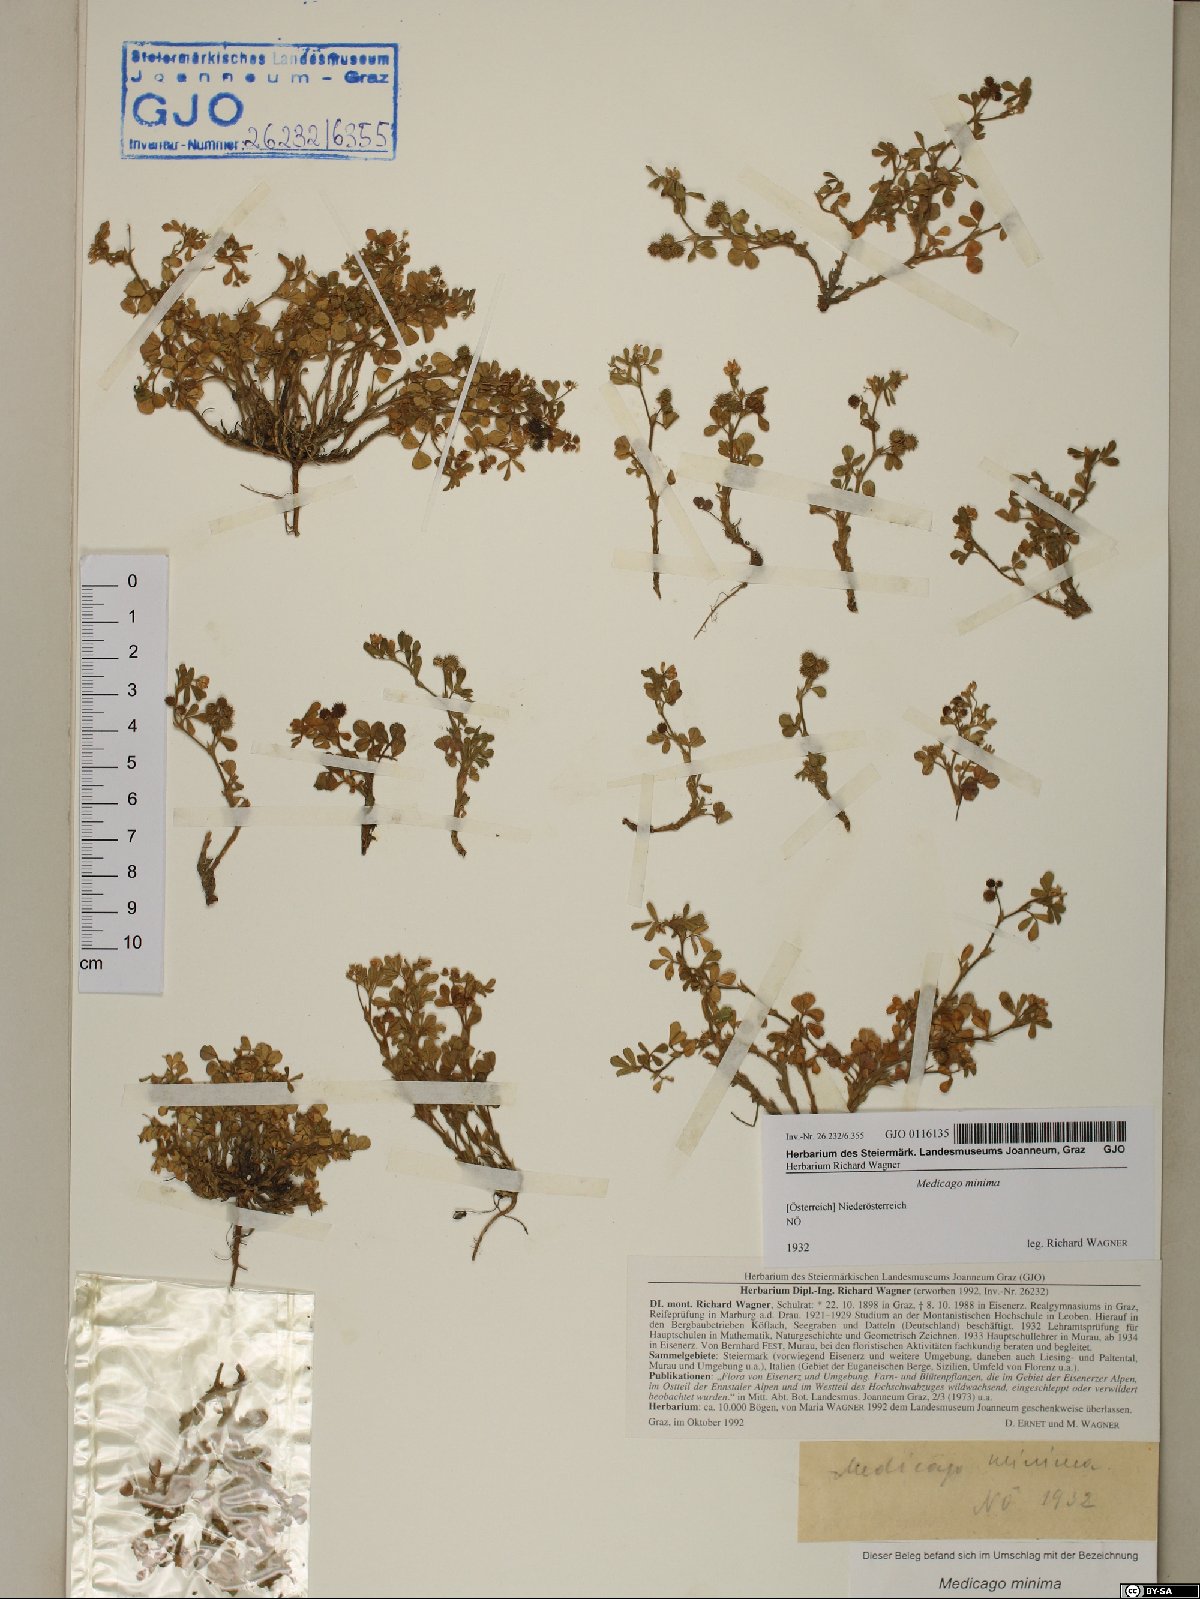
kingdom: Plantae
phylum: Tracheophyta
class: Magnoliopsida
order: Fabales
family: Fabaceae
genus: Medicago
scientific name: Medicago minima
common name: Little bur-clover
